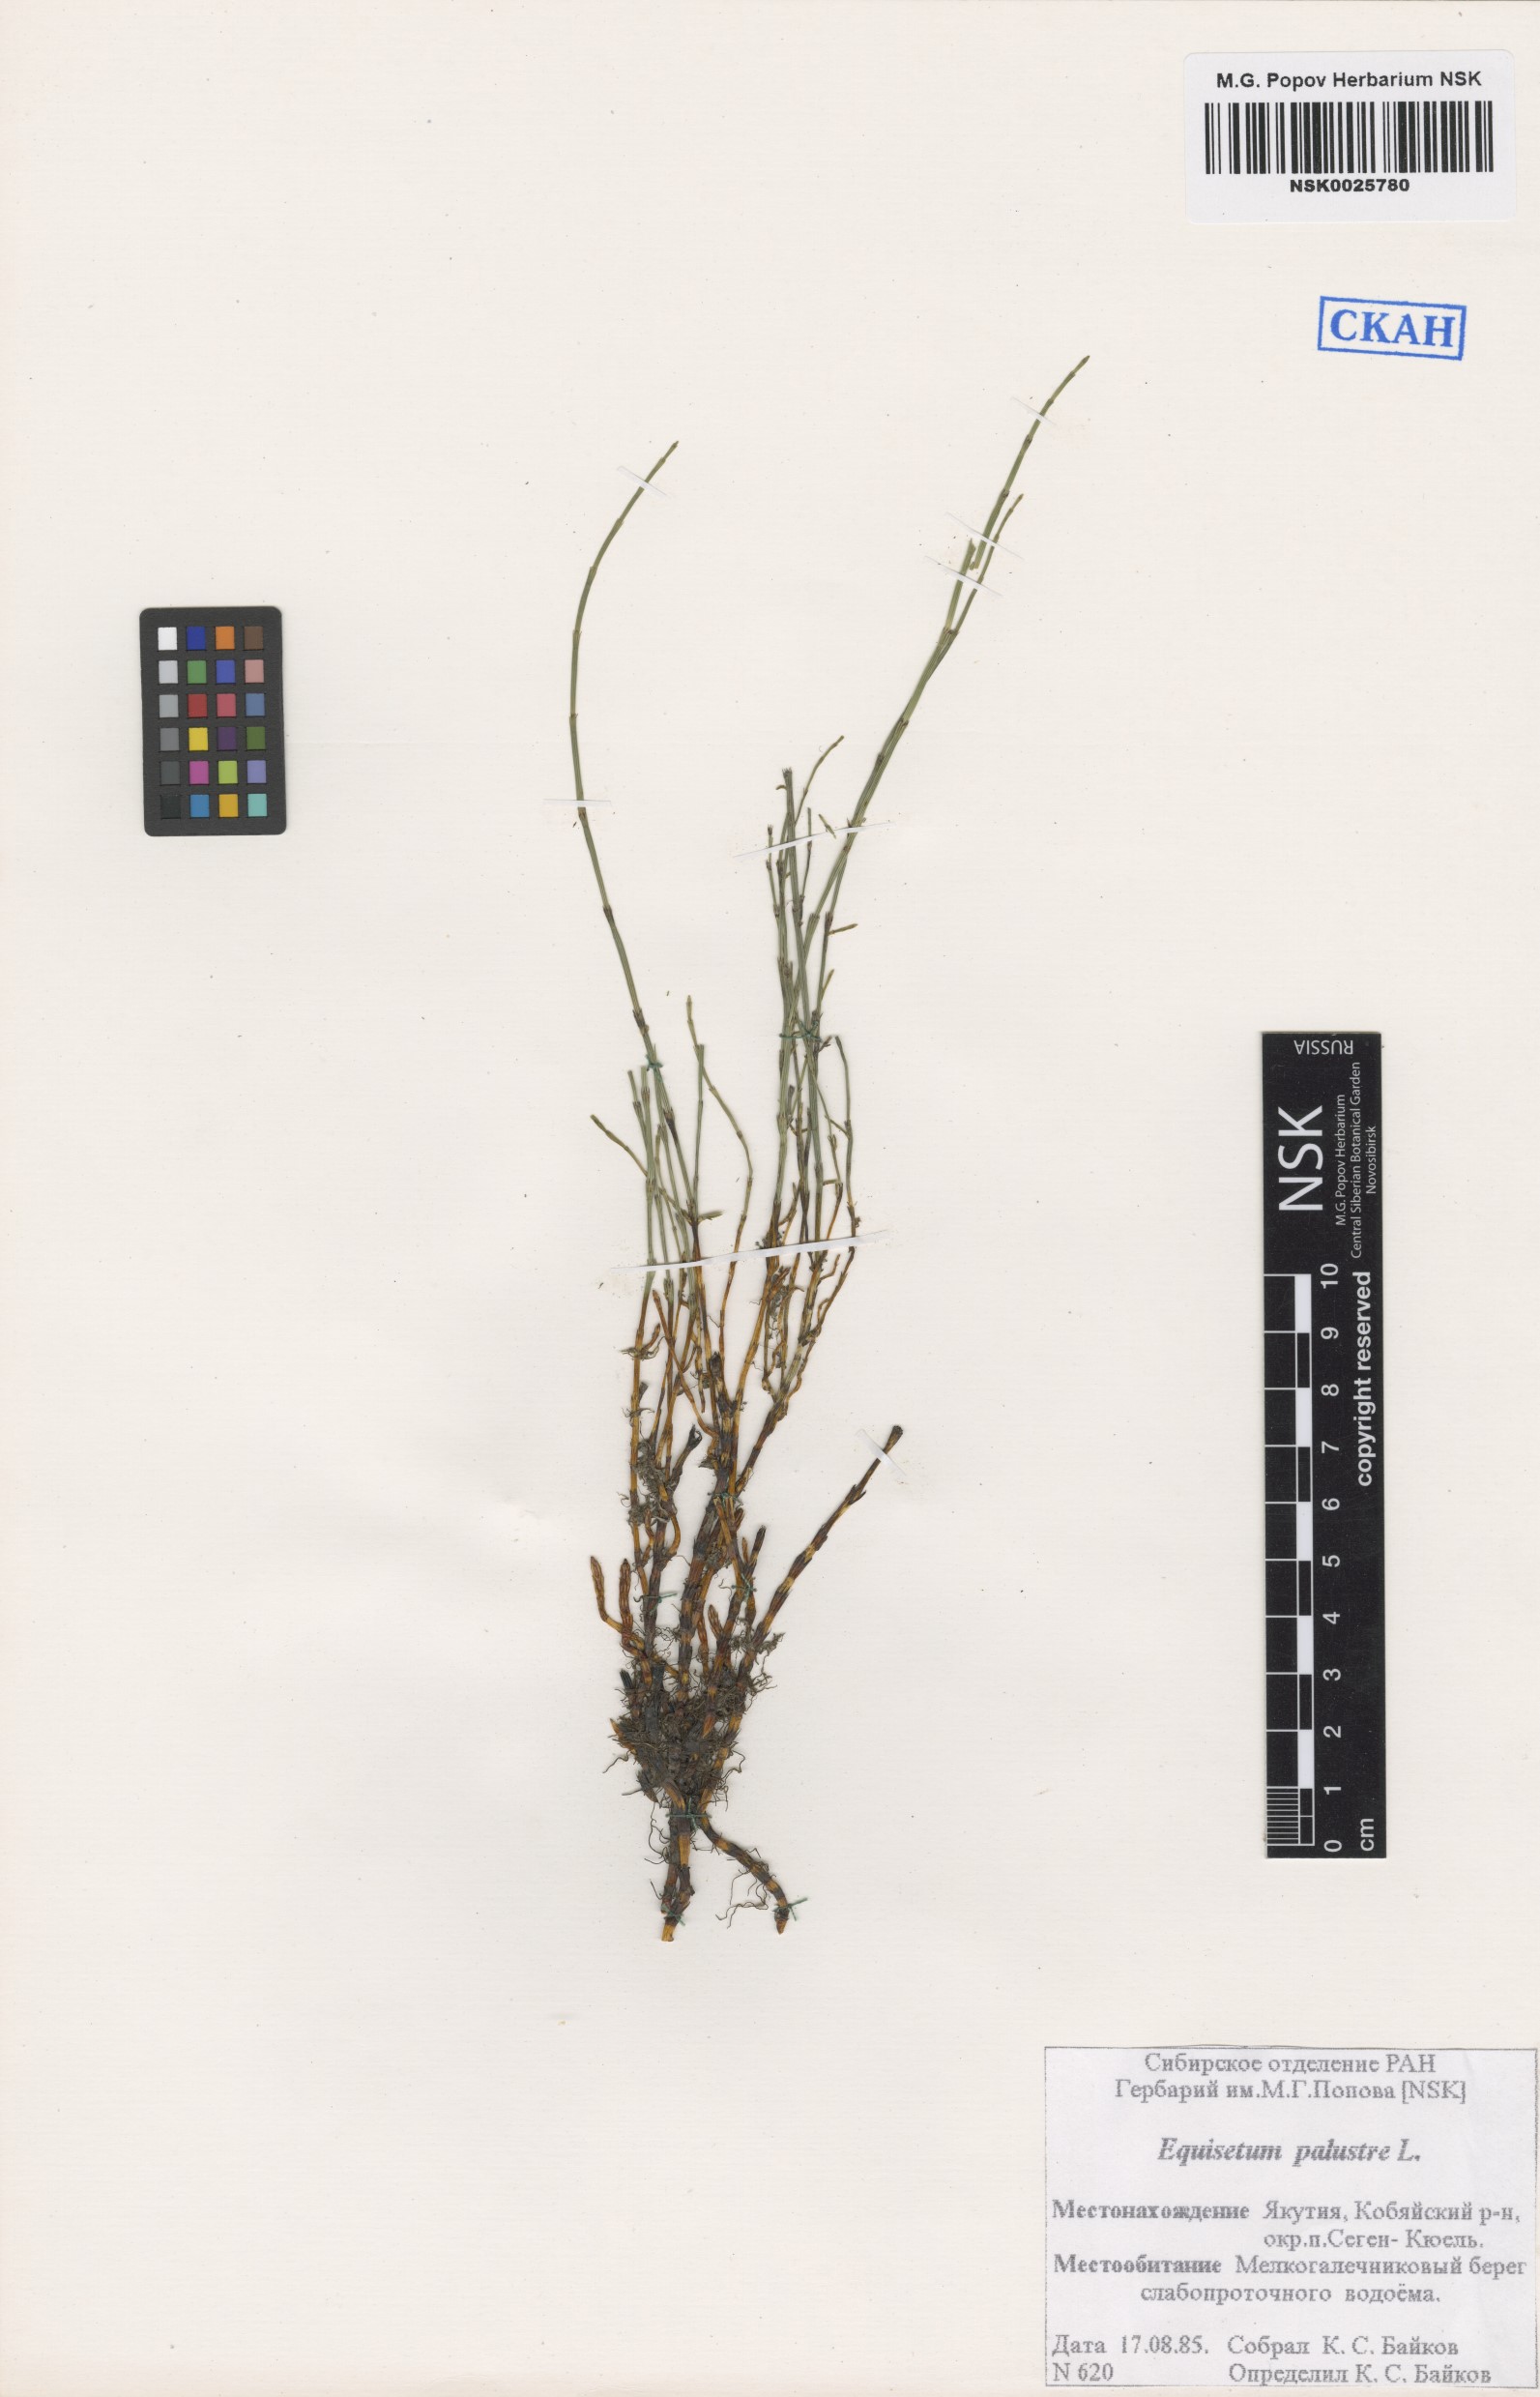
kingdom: Plantae
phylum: Tracheophyta
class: Polypodiopsida
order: Equisetales
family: Equisetaceae
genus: Equisetum
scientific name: Equisetum palustre
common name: Marsh horsetail
